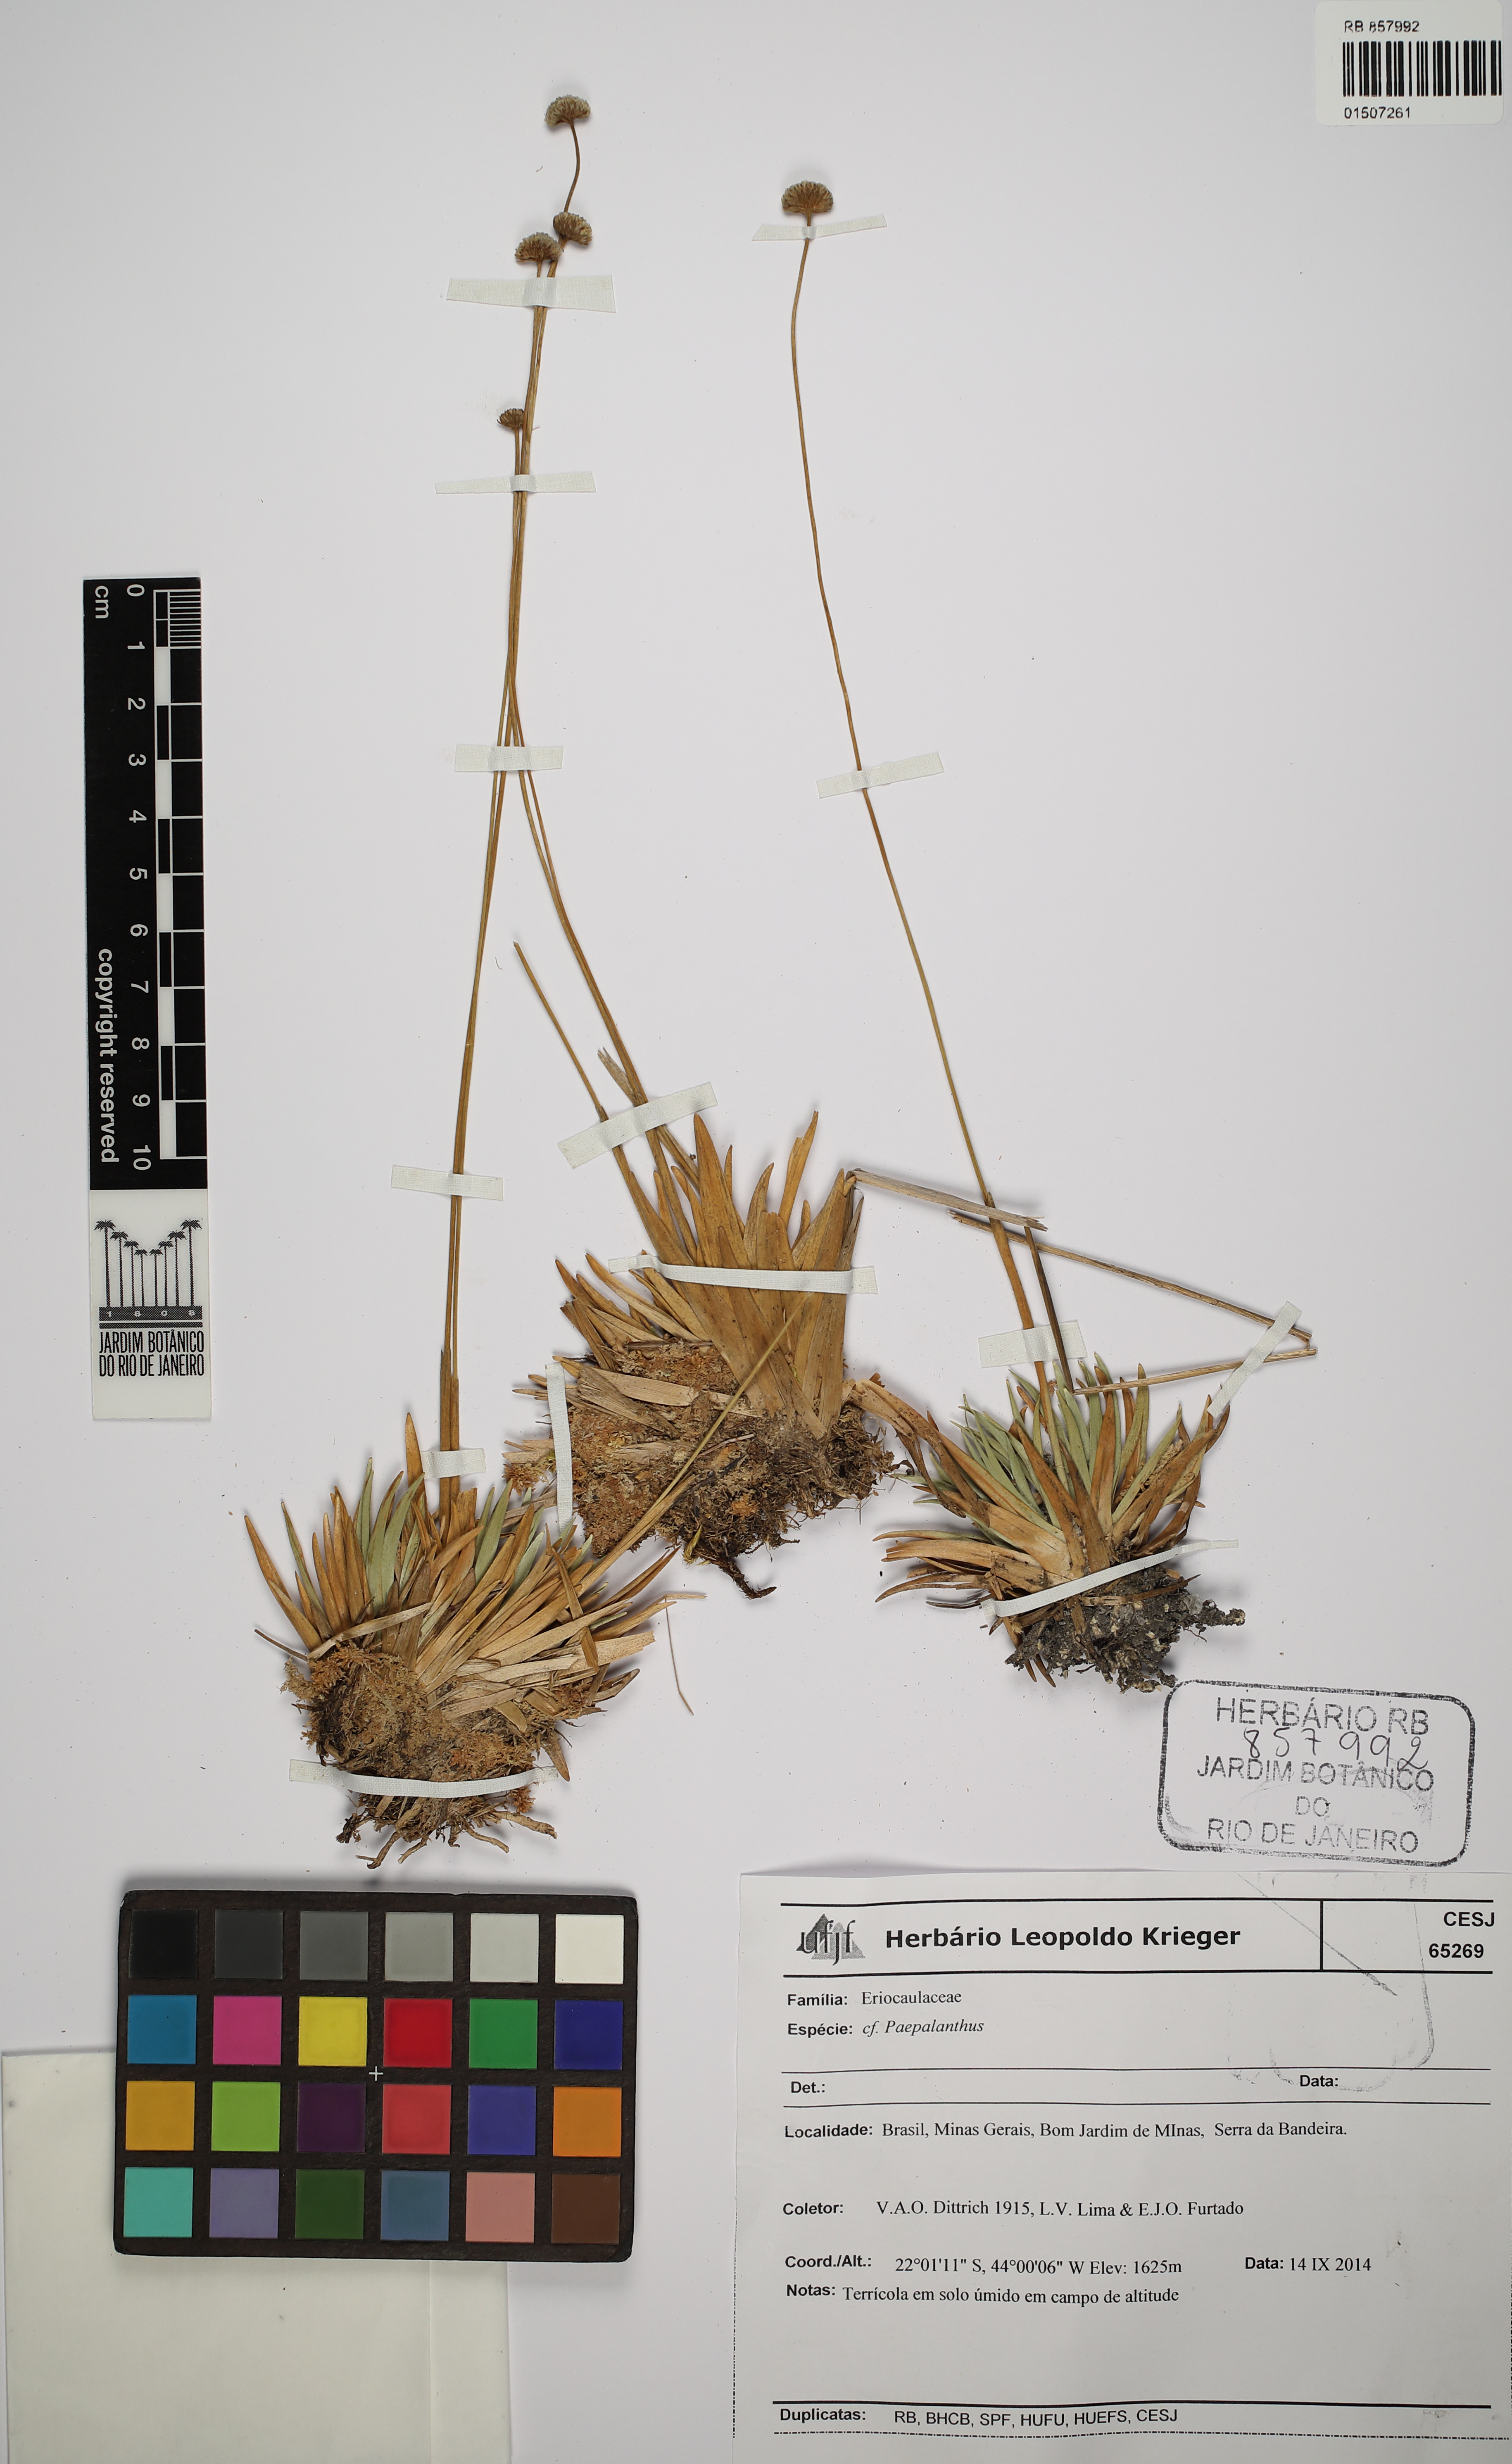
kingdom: Plantae
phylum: Tracheophyta
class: Liliopsida
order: Poales
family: Eriocaulaceae
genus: Paepalanthus
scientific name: Paepalanthus
